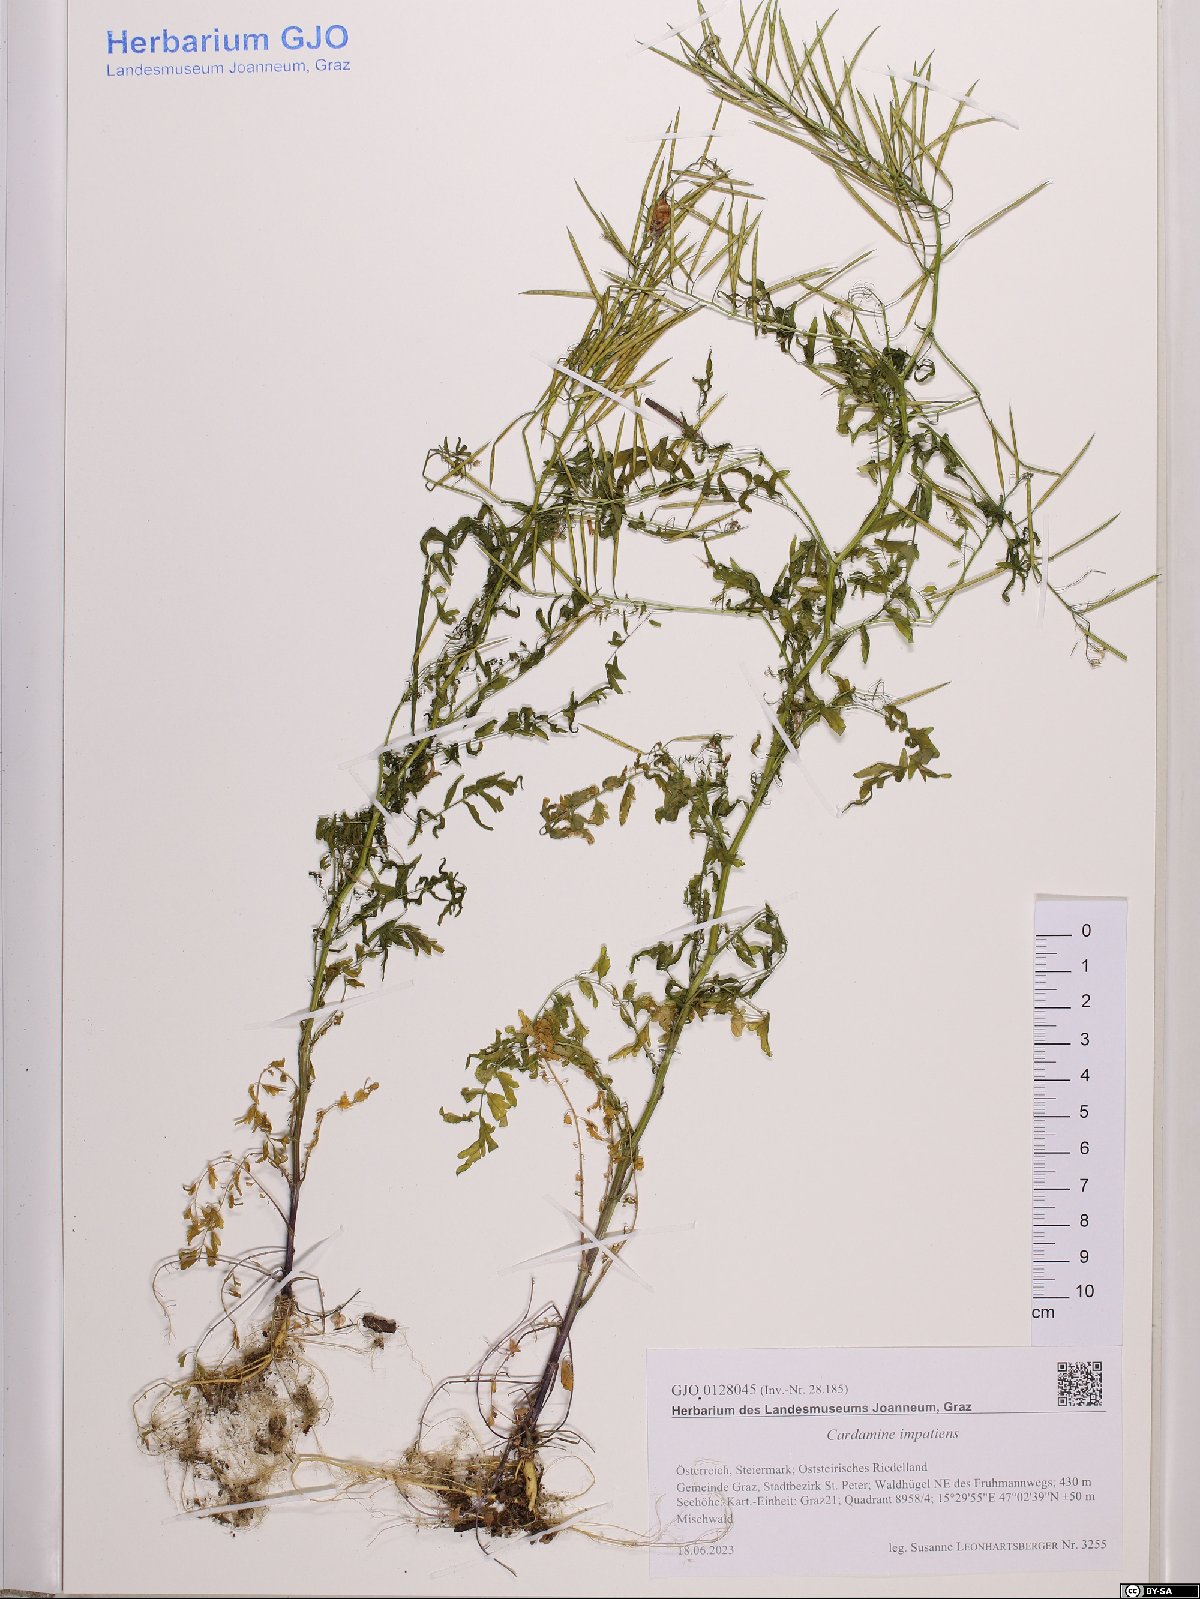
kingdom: Plantae
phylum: Tracheophyta
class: Magnoliopsida
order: Brassicales
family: Brassicaceae
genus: Cardamine
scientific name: Cardamine impatiens
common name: Narrow-leaved bitter-cress
